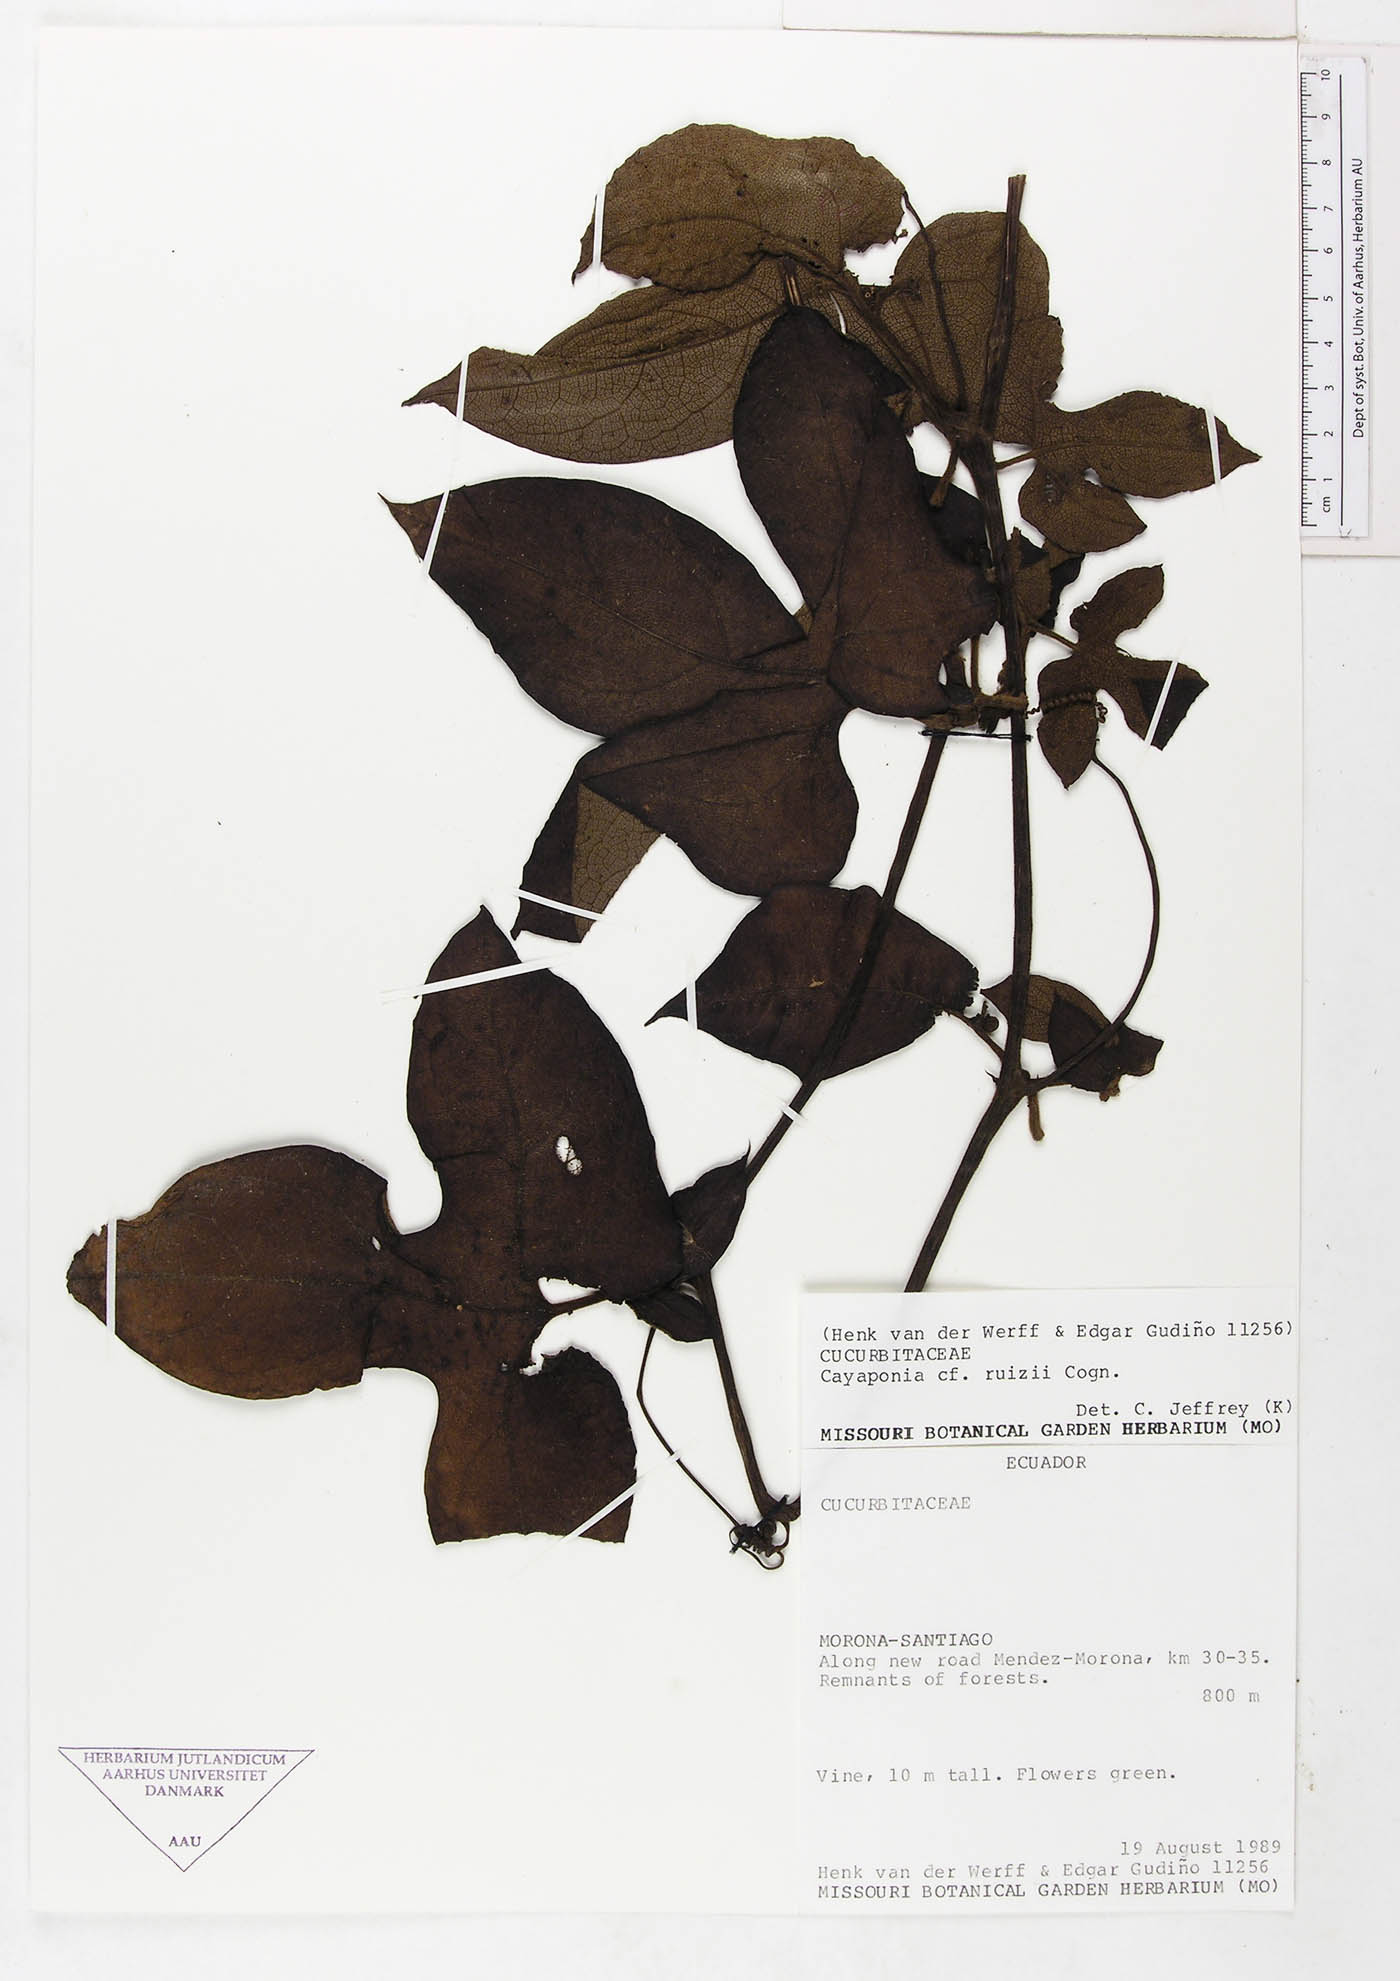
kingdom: Plantae
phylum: Tracheophyta
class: Magnoliopsida
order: Cucurbitales
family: Cucurbitaceae
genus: Cayaponia
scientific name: Cayaponia peruviana
